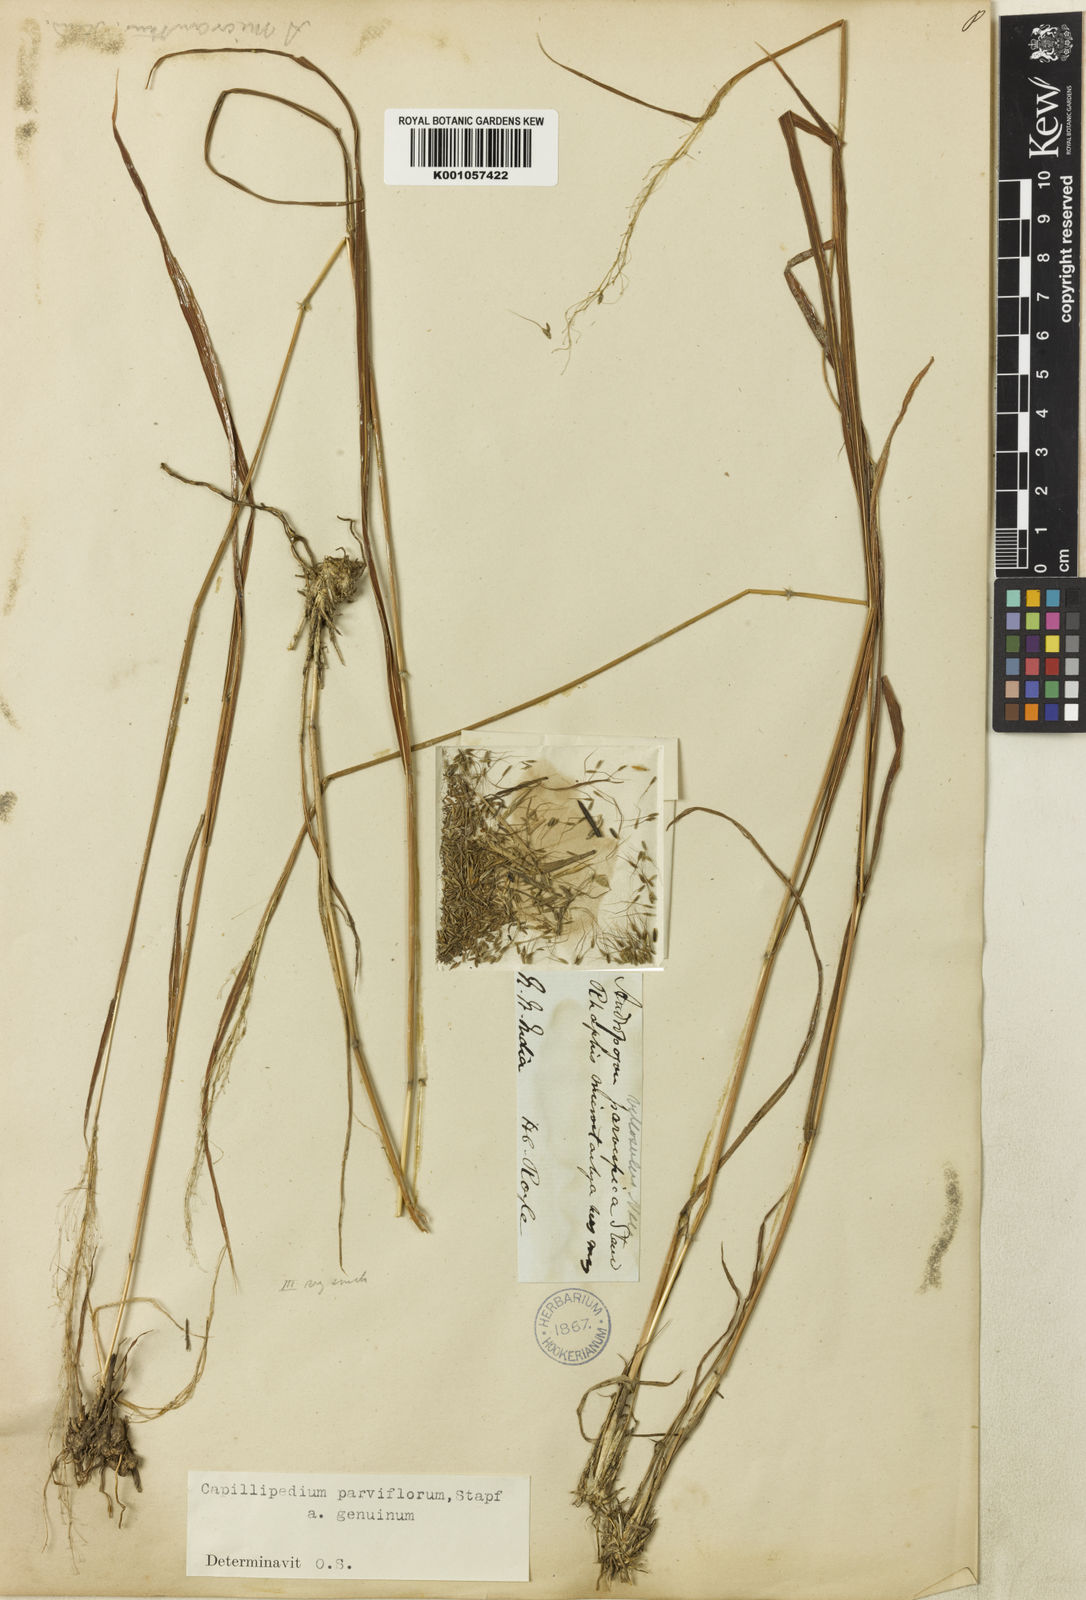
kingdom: Plantae
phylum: Tracheophyta
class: Liliopsida
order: Poales
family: Poaceae
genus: Capillipedium
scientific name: Capillipedium parviflorum
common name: Golden-beard
